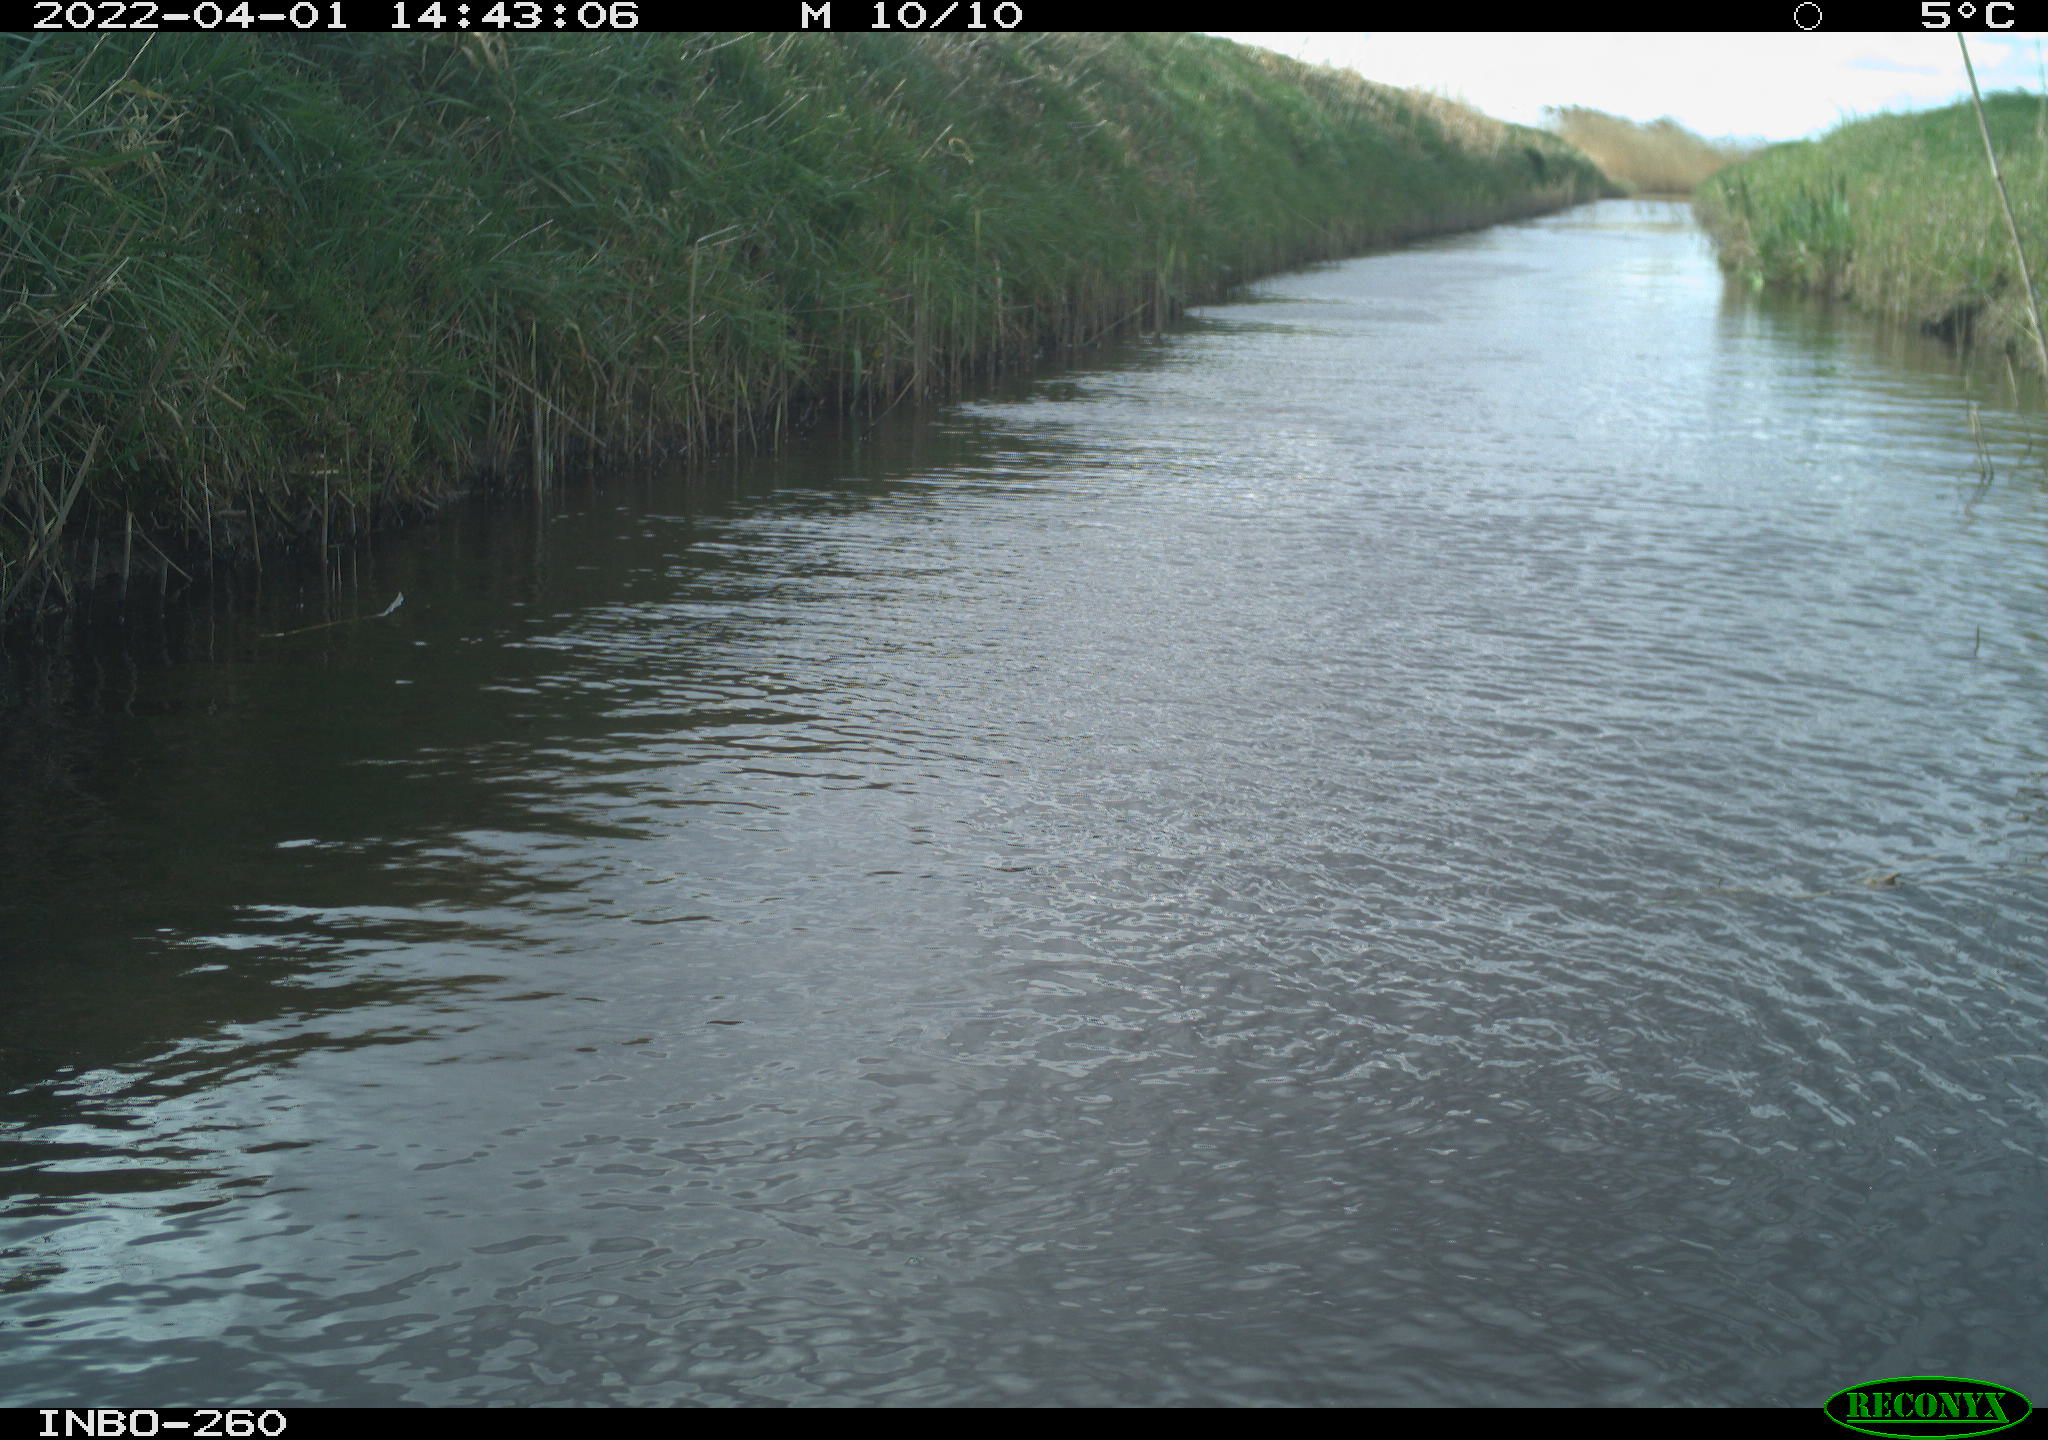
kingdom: Animalia
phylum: Chordata
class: Aves
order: Gruiformes
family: Rallidae
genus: Fulica
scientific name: Fulica atra
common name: Eurasian coot
